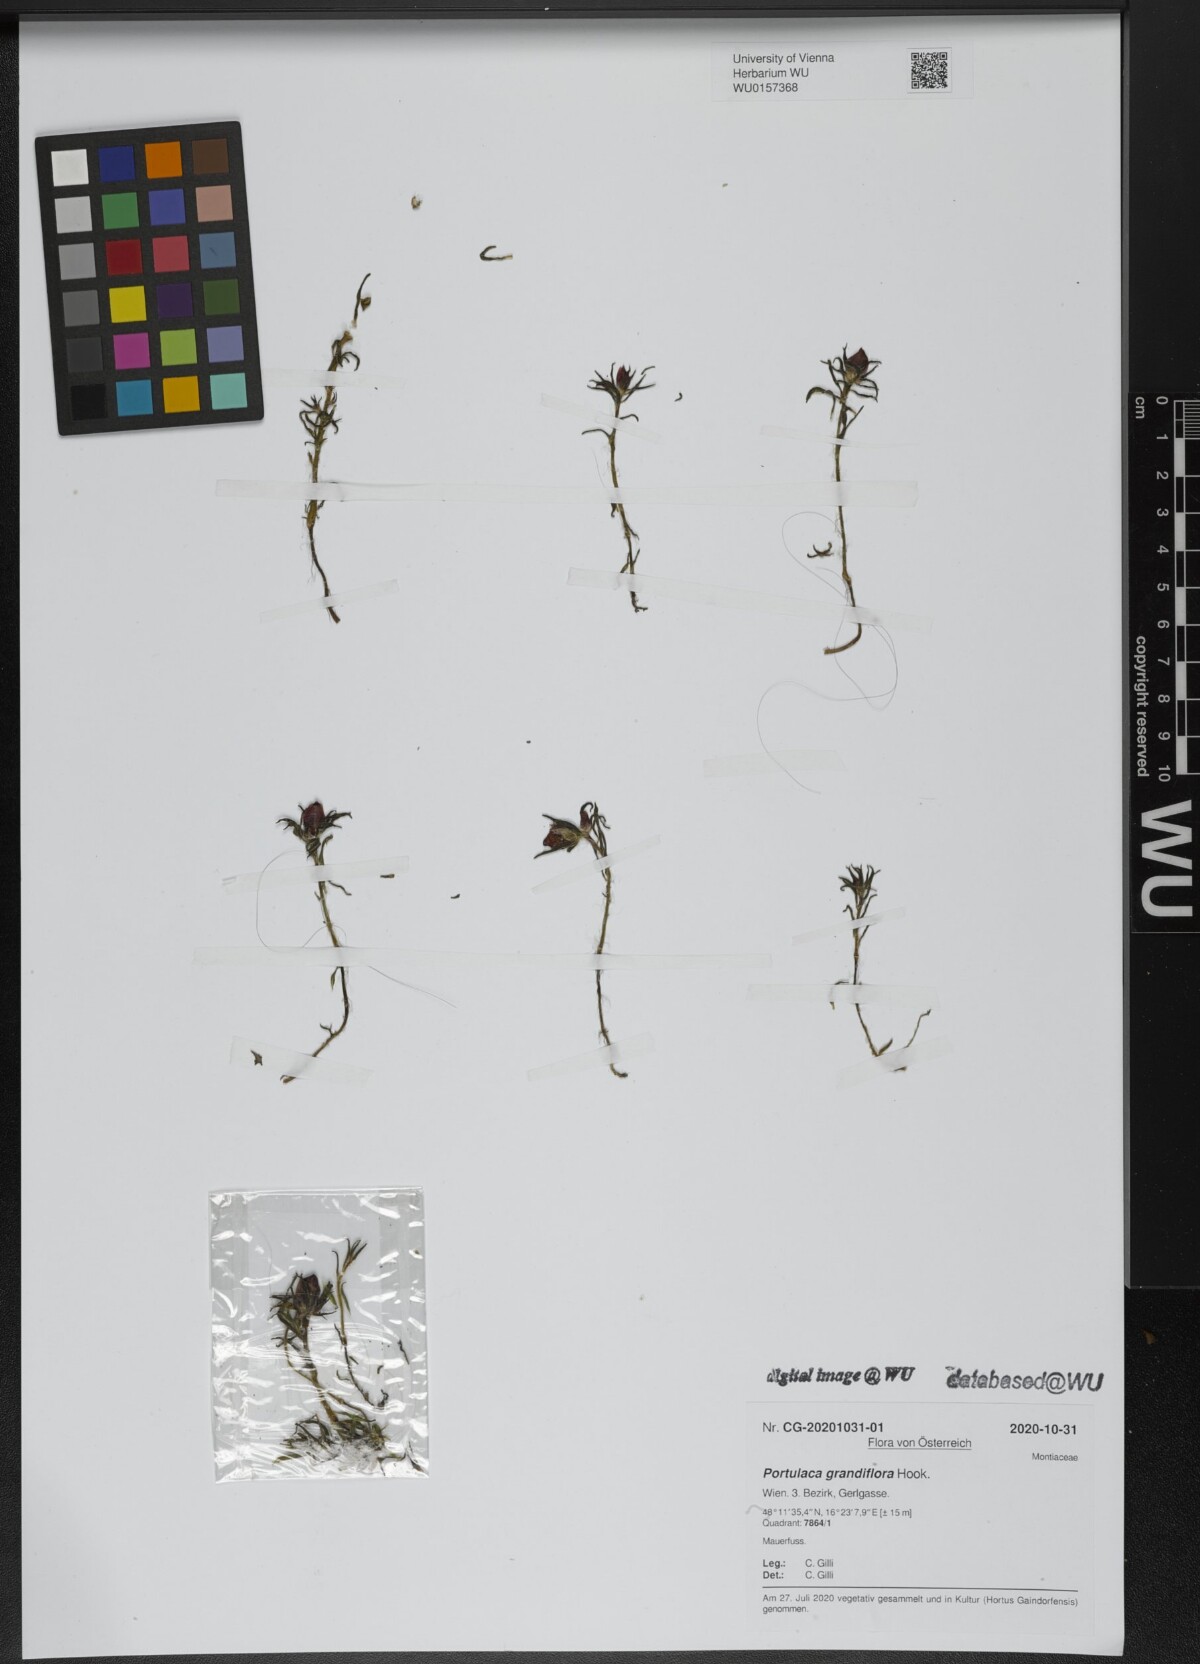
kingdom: Plantae
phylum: Tracheophyta
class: Magnoliopsida
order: Caryophyllales
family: Portulacaceae
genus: Portulaca
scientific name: Portulaca grandiflora
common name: Moss-rose
